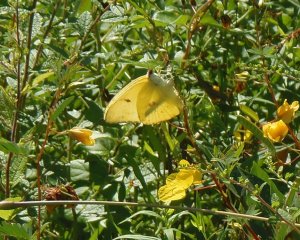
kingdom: Animalia
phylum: Arthropoda
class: Insecta
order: Lepidoptera
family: Pieridae
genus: Phoebis
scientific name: Phoebis sennae
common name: Cloudless Sulphur
